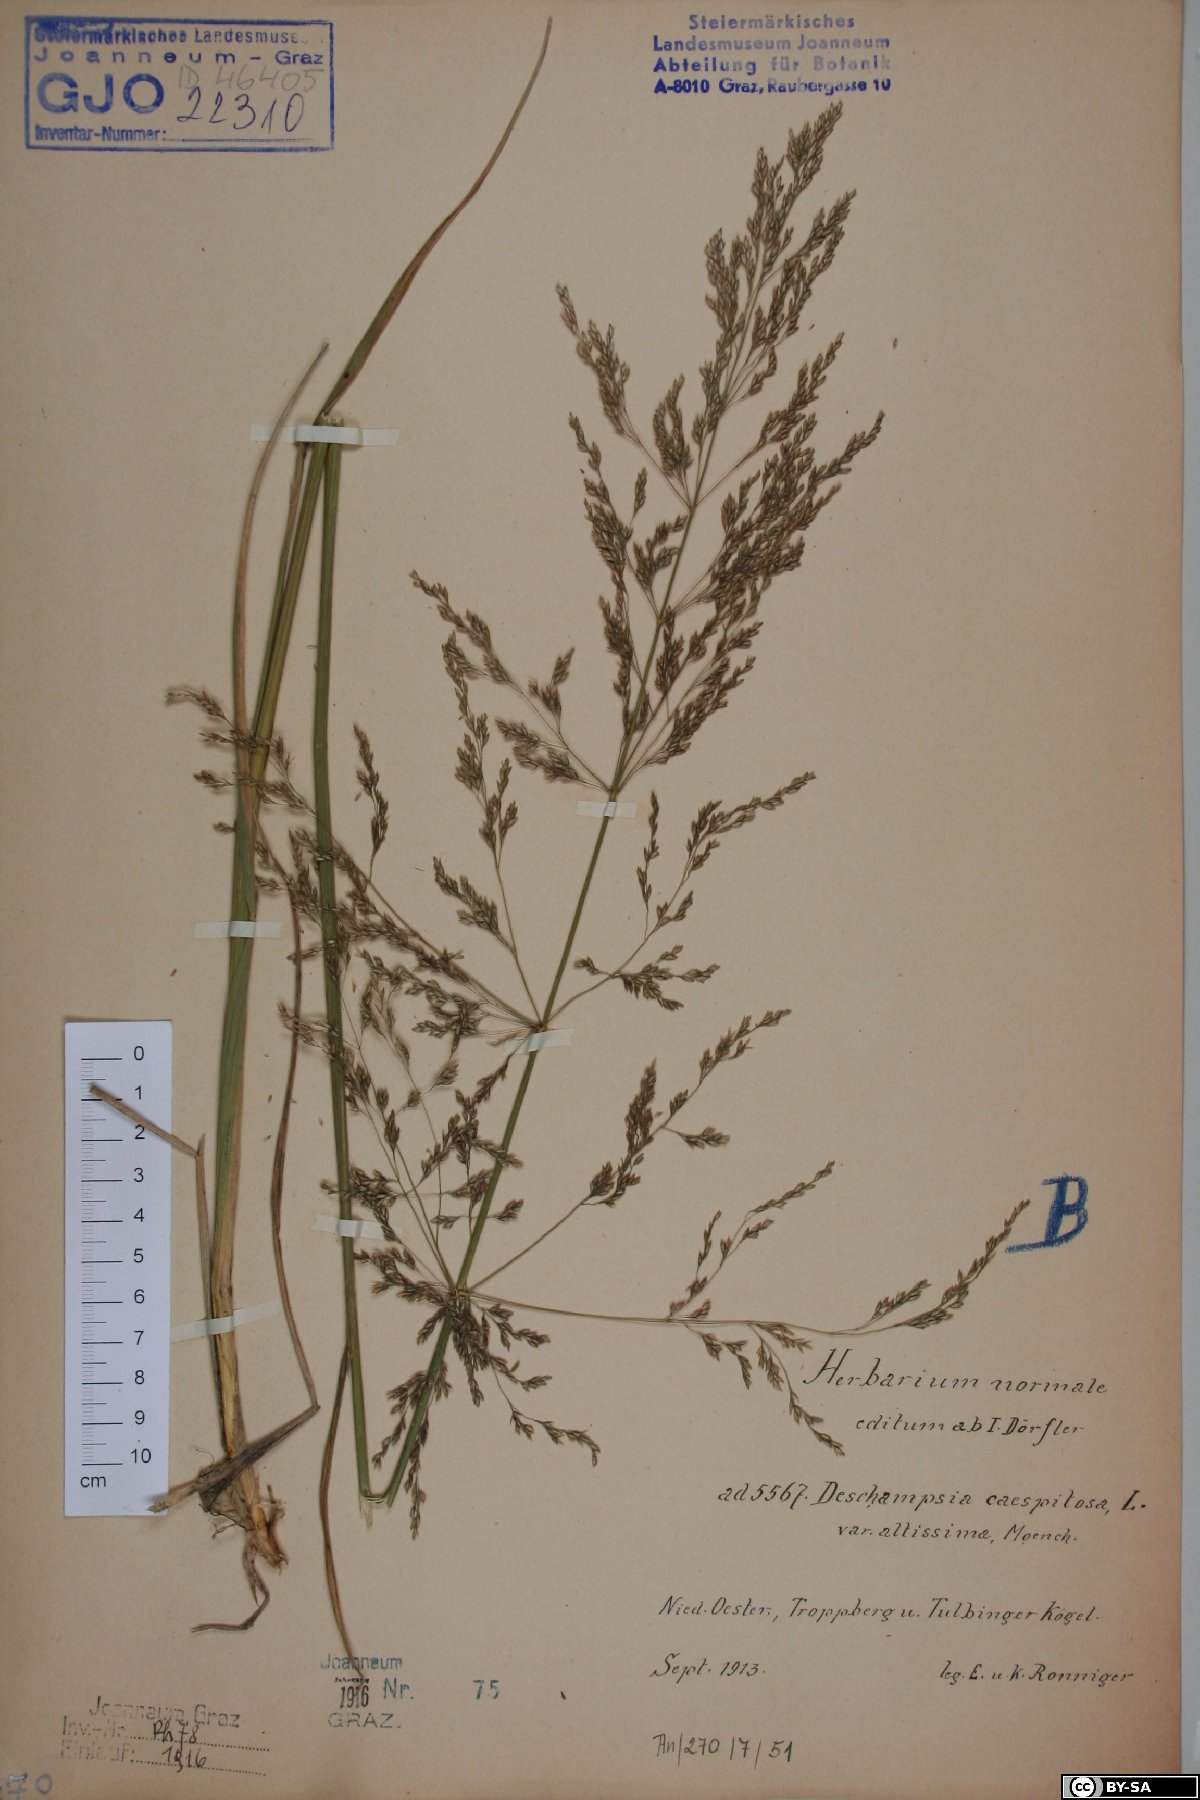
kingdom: Plantae
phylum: Tracheophyta
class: Liliopsida
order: Poales
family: Poaceae
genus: Deschampsia
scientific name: Deschampsia cespitosa
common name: Tufted hair-grass
